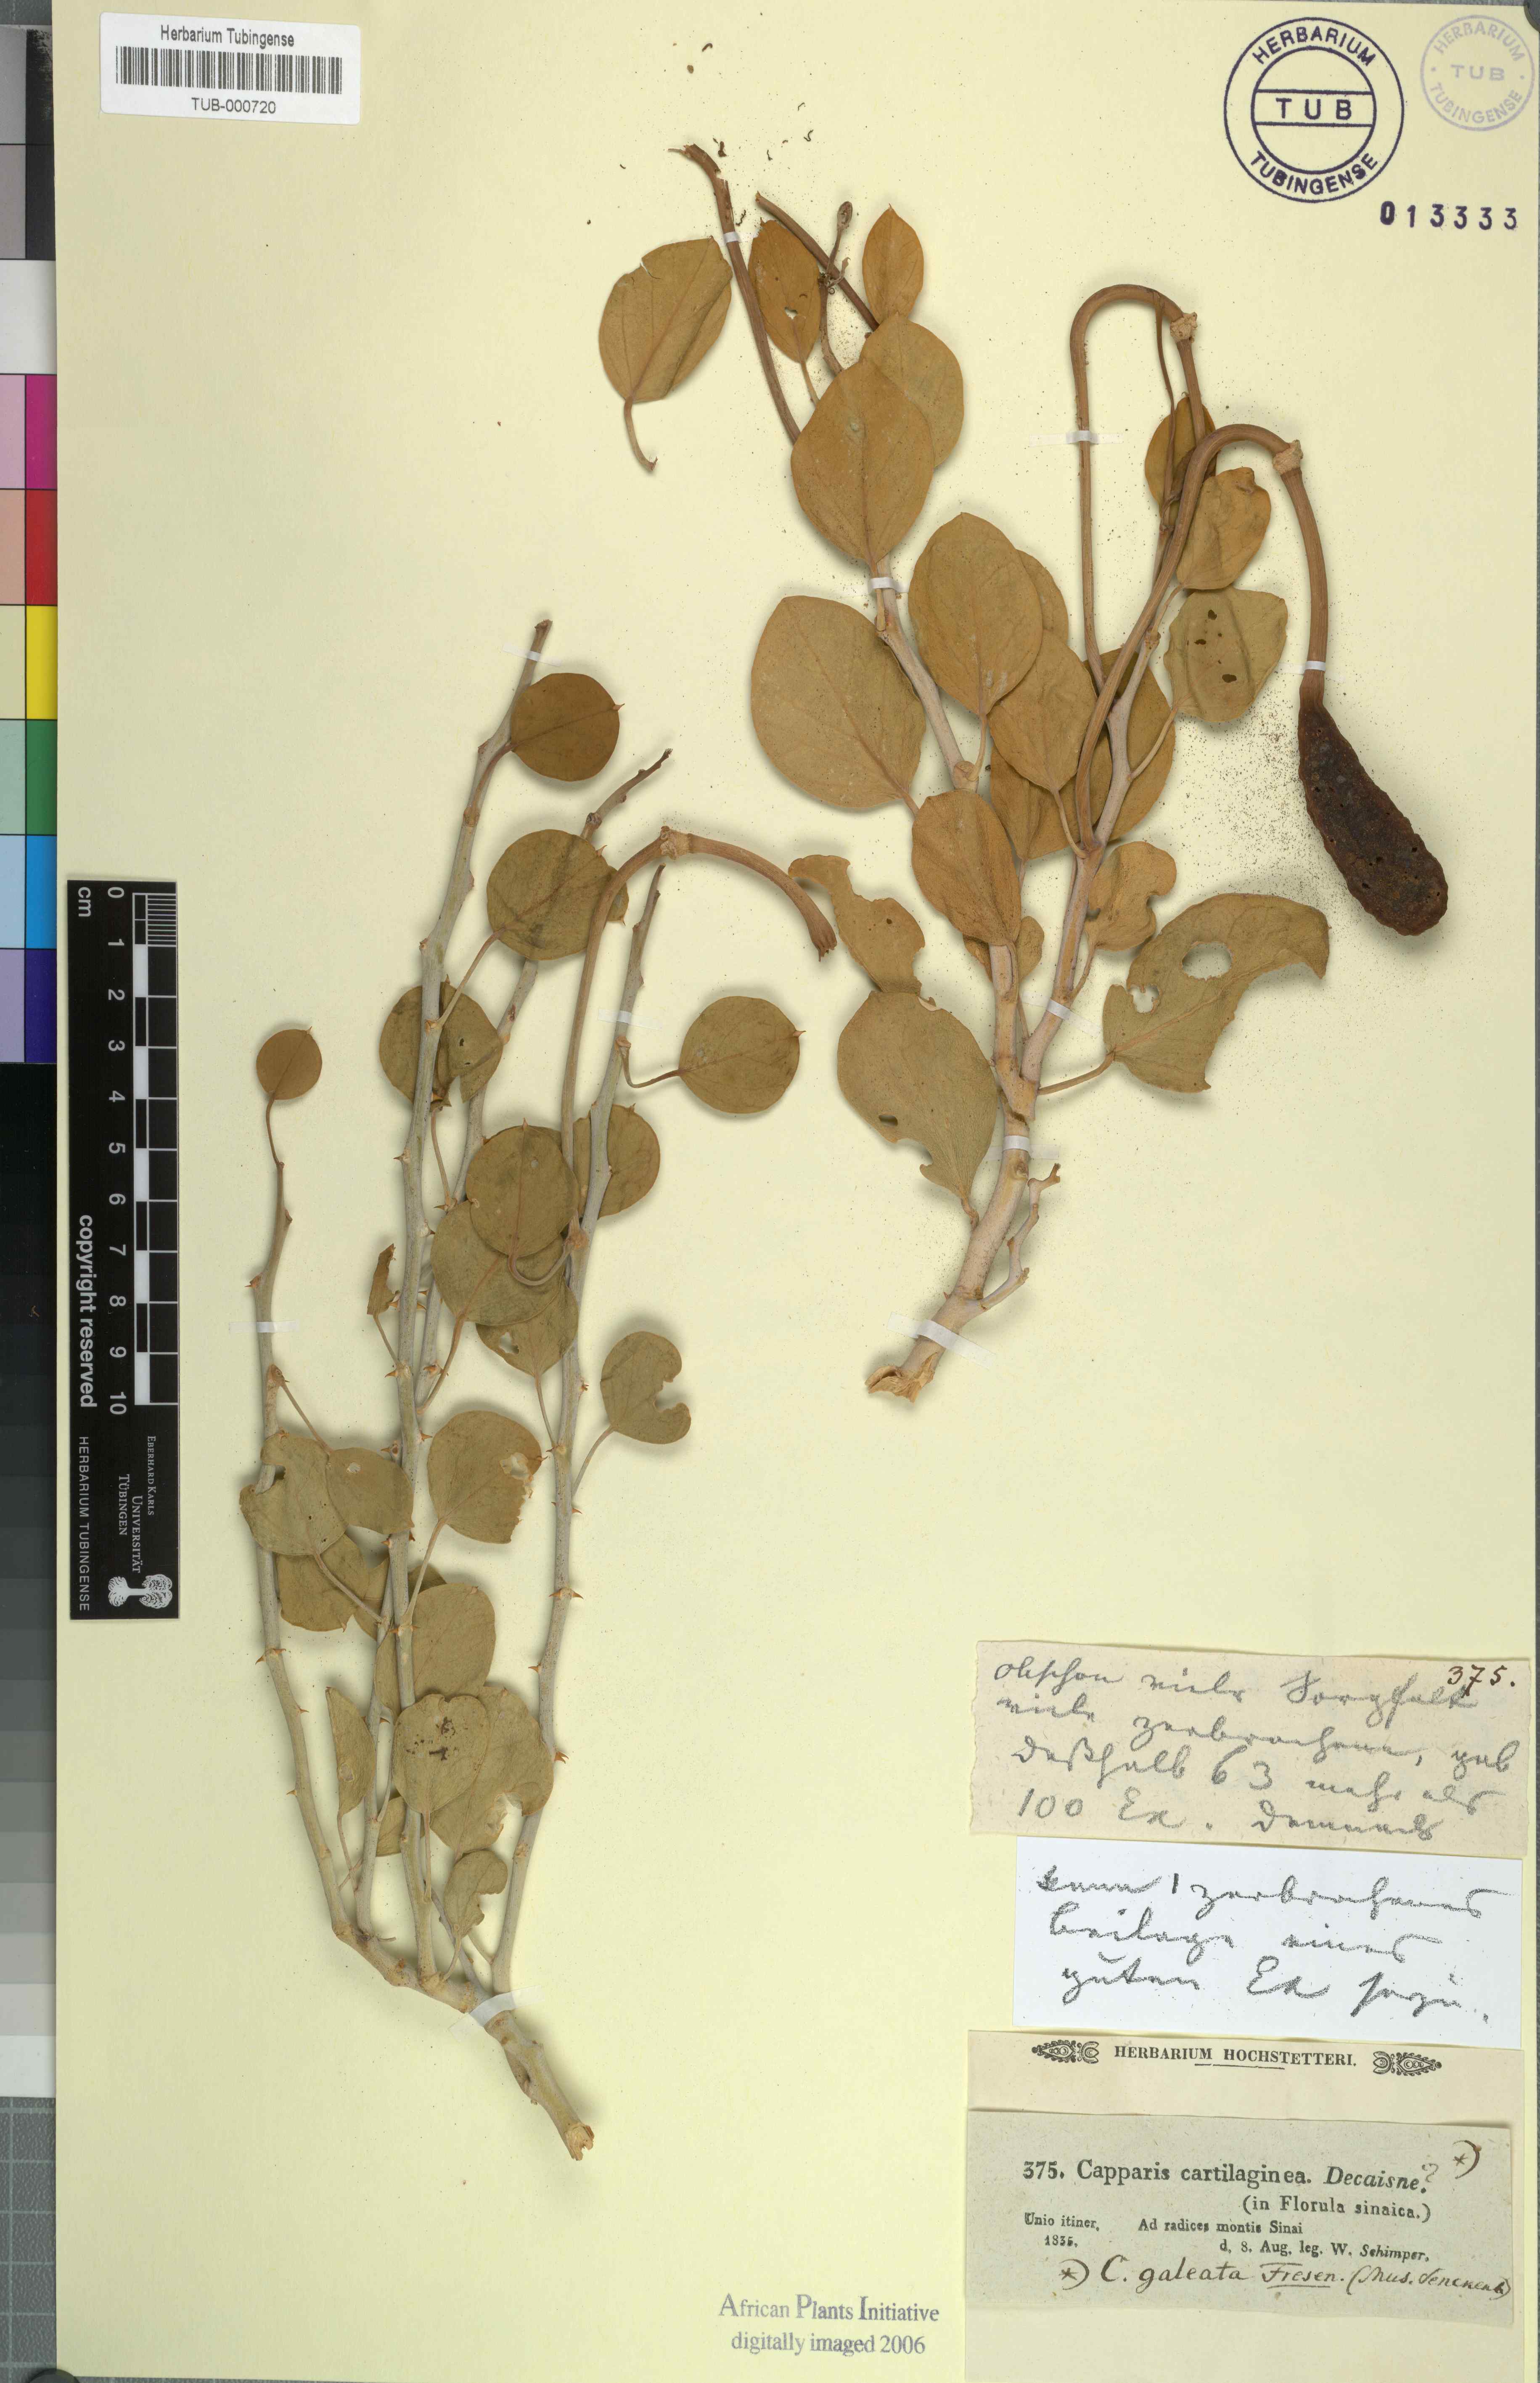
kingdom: Plantae
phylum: Tracheophyta
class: Magnoliopsida
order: Brassicales
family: Capparaceae
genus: Capparis
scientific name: Capparis spinosa
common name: Caper
